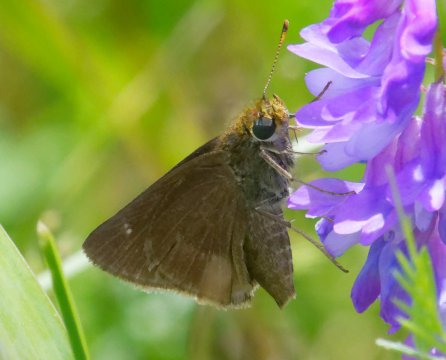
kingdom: Animalia
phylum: Arthropoda
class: Insecta
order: Lepidoptera
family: Hesperiidae
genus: Euphyes
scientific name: Euphyes vestris
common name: Dun Skipper
